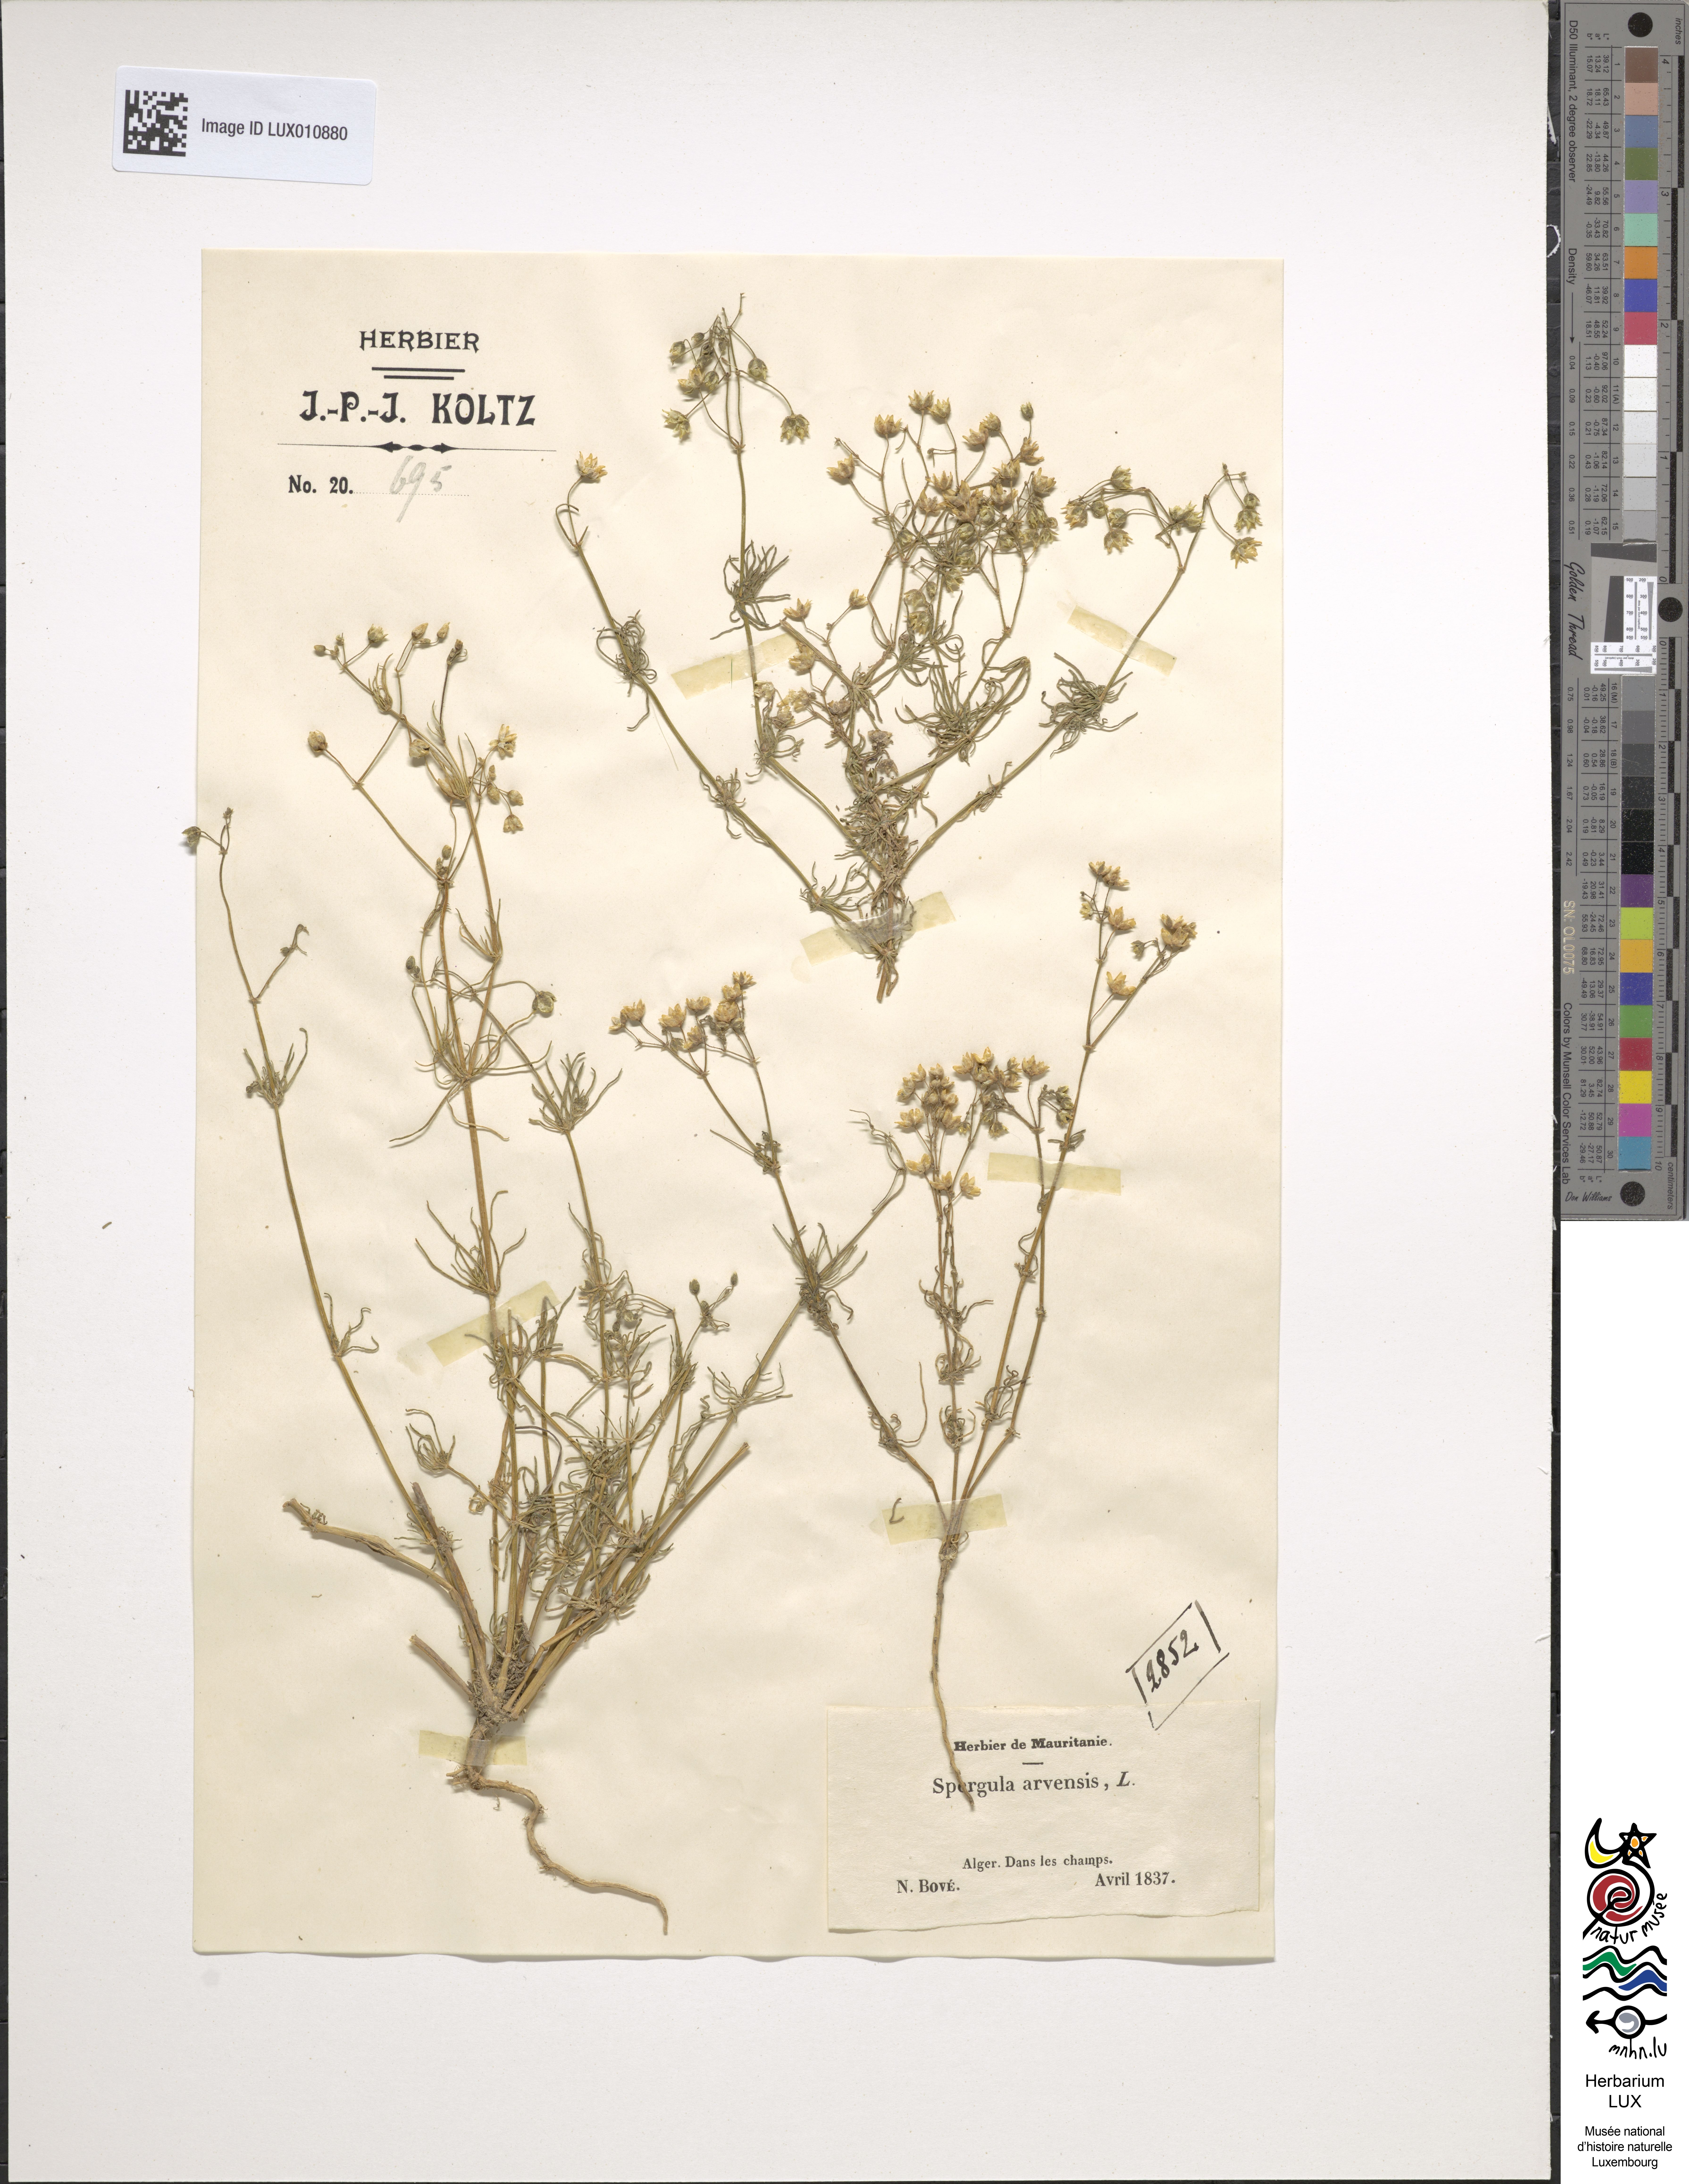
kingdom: Plantae
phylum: Tracheophyta
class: Magnoliopsida
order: Caryophyllales
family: Caryophyllaceae
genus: Spergula
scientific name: Spergula arvensis
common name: Corn spurrey
